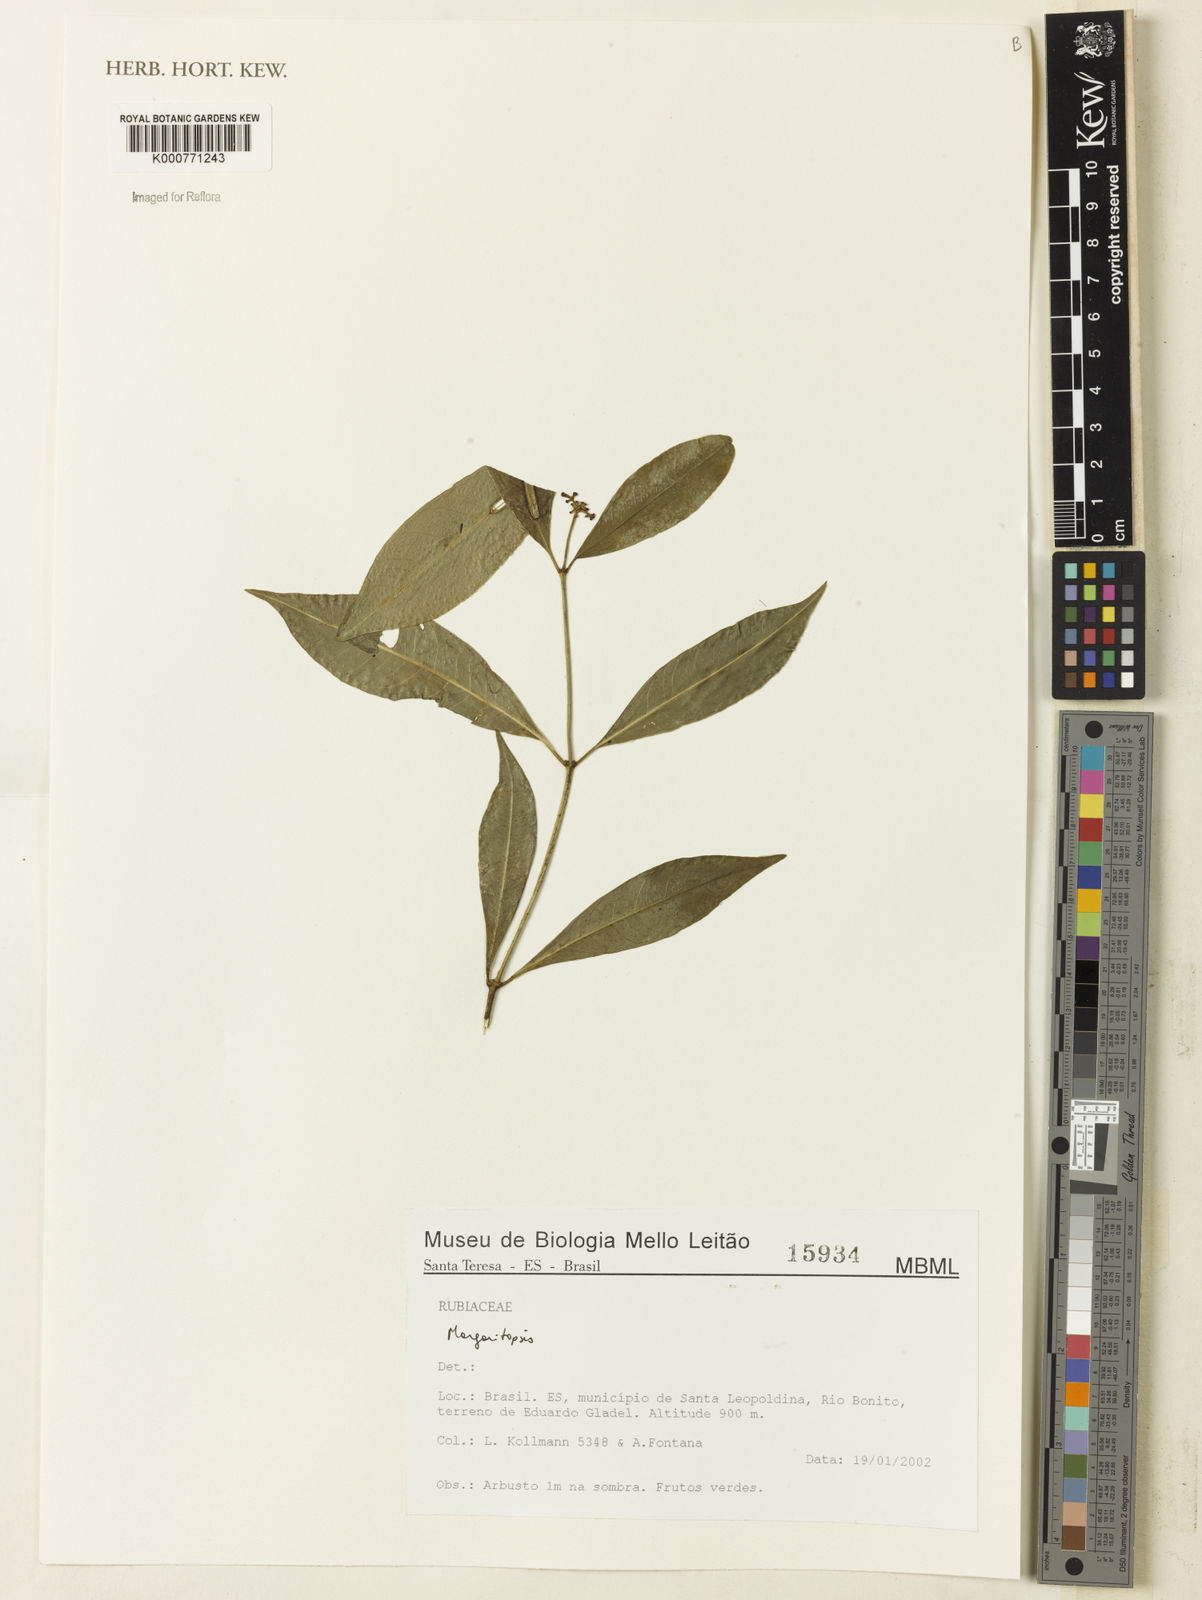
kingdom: Plantae
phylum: Tracheophyta
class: Magnoliopsida
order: Gentianales
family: Rubiaceae
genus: Eumachia
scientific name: Eumachia
